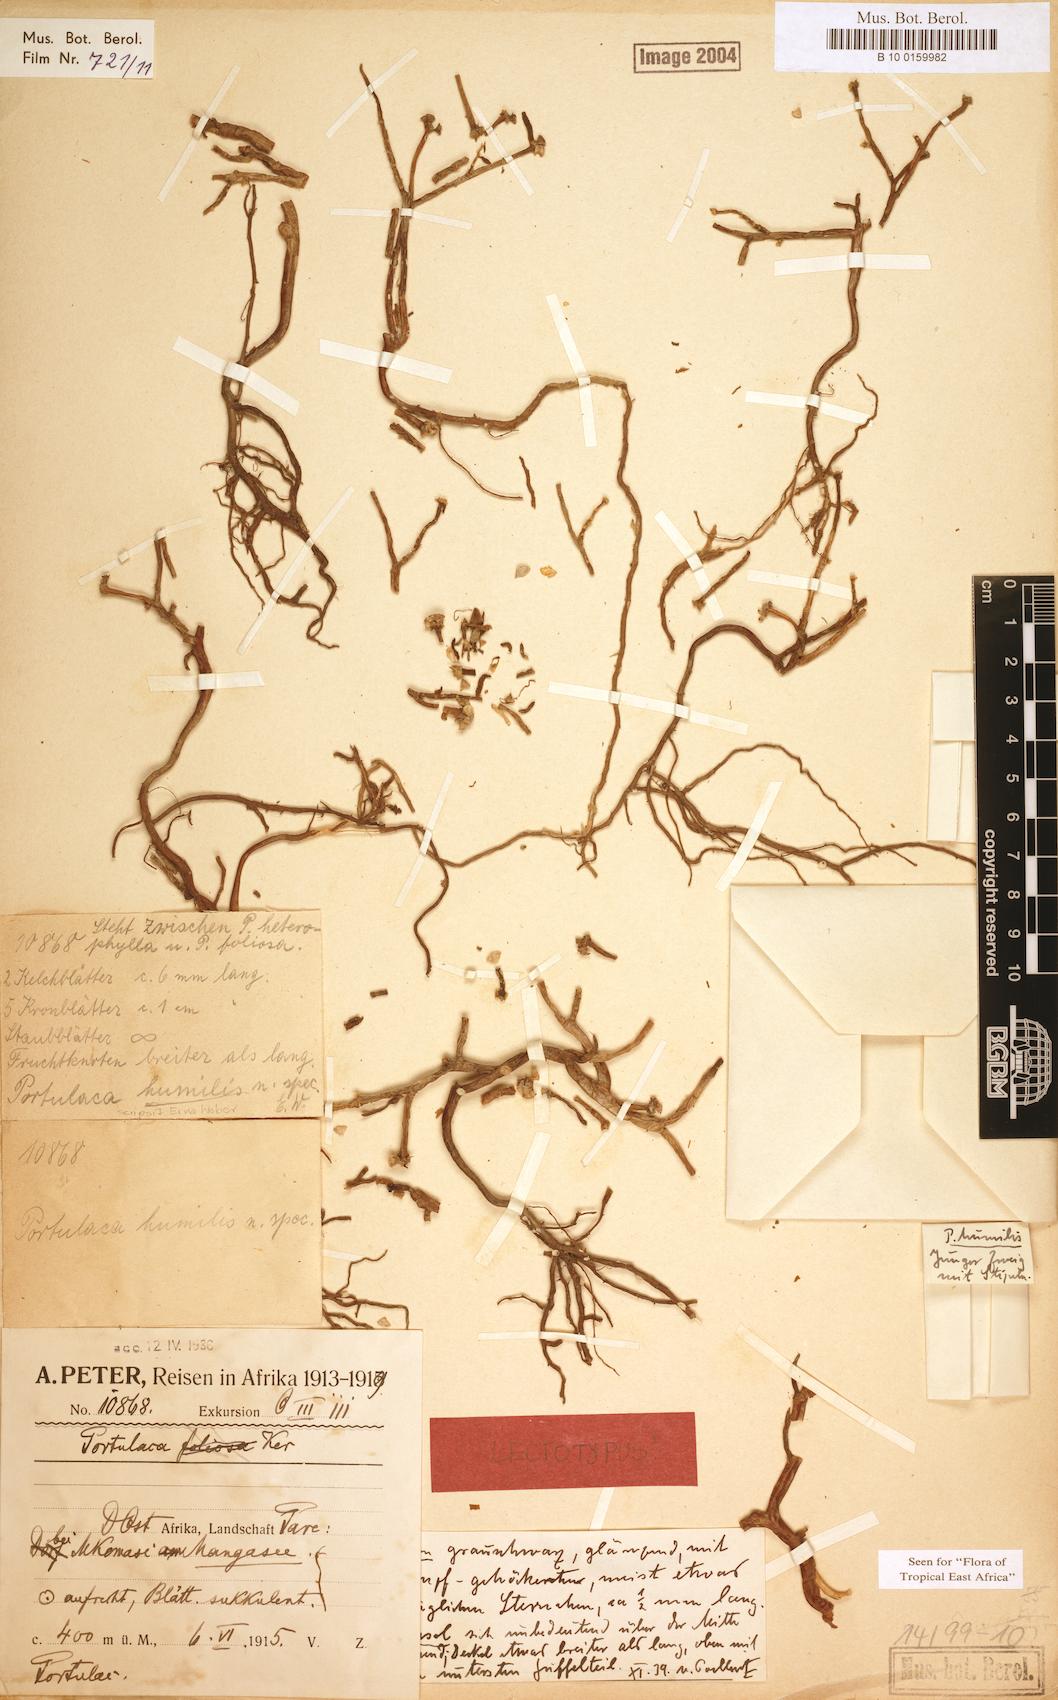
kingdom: Plantae
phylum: Tracheophyta
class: Magnoliopsida
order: Caryophyllales
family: Portulacaceae
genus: Portulaca
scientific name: Portulaca humilis
